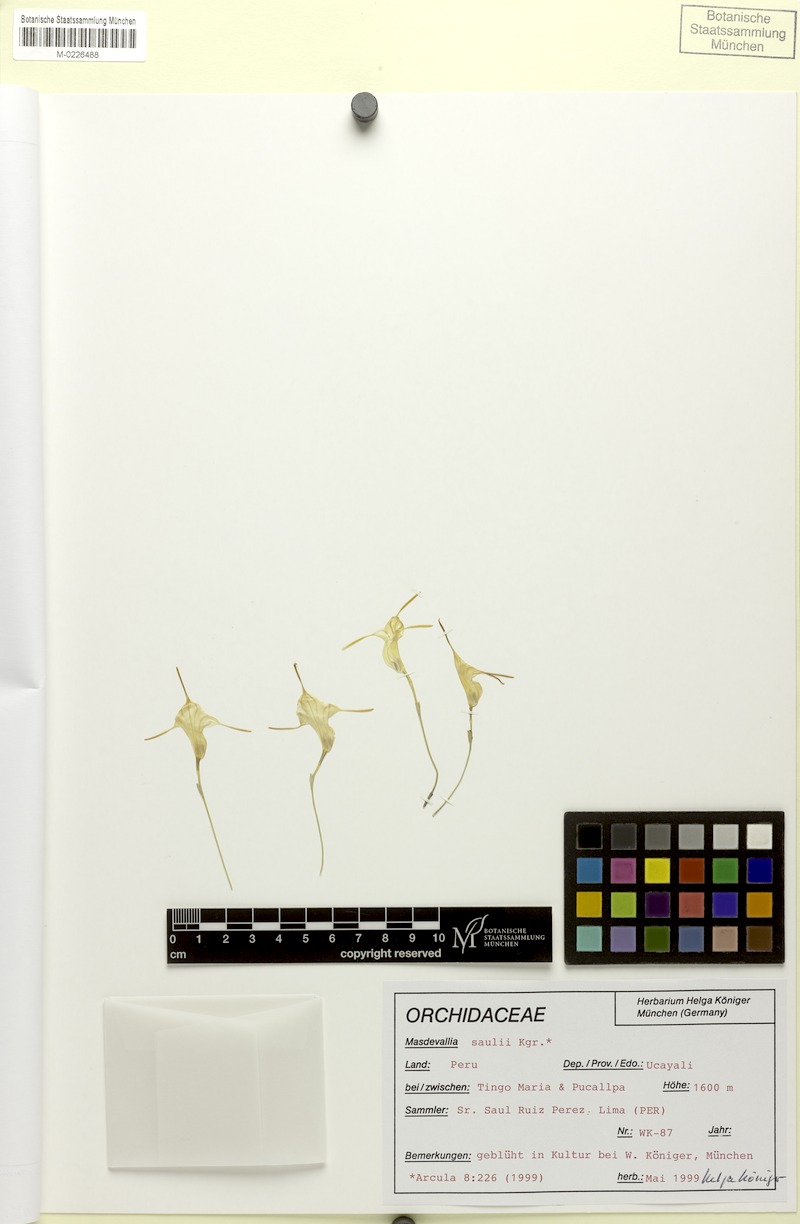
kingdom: Plantae
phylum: Tracheophyta
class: Liliopsida
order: Asparagales
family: Orchidaceae
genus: Masdevallia
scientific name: Masdevallia fuchsii
